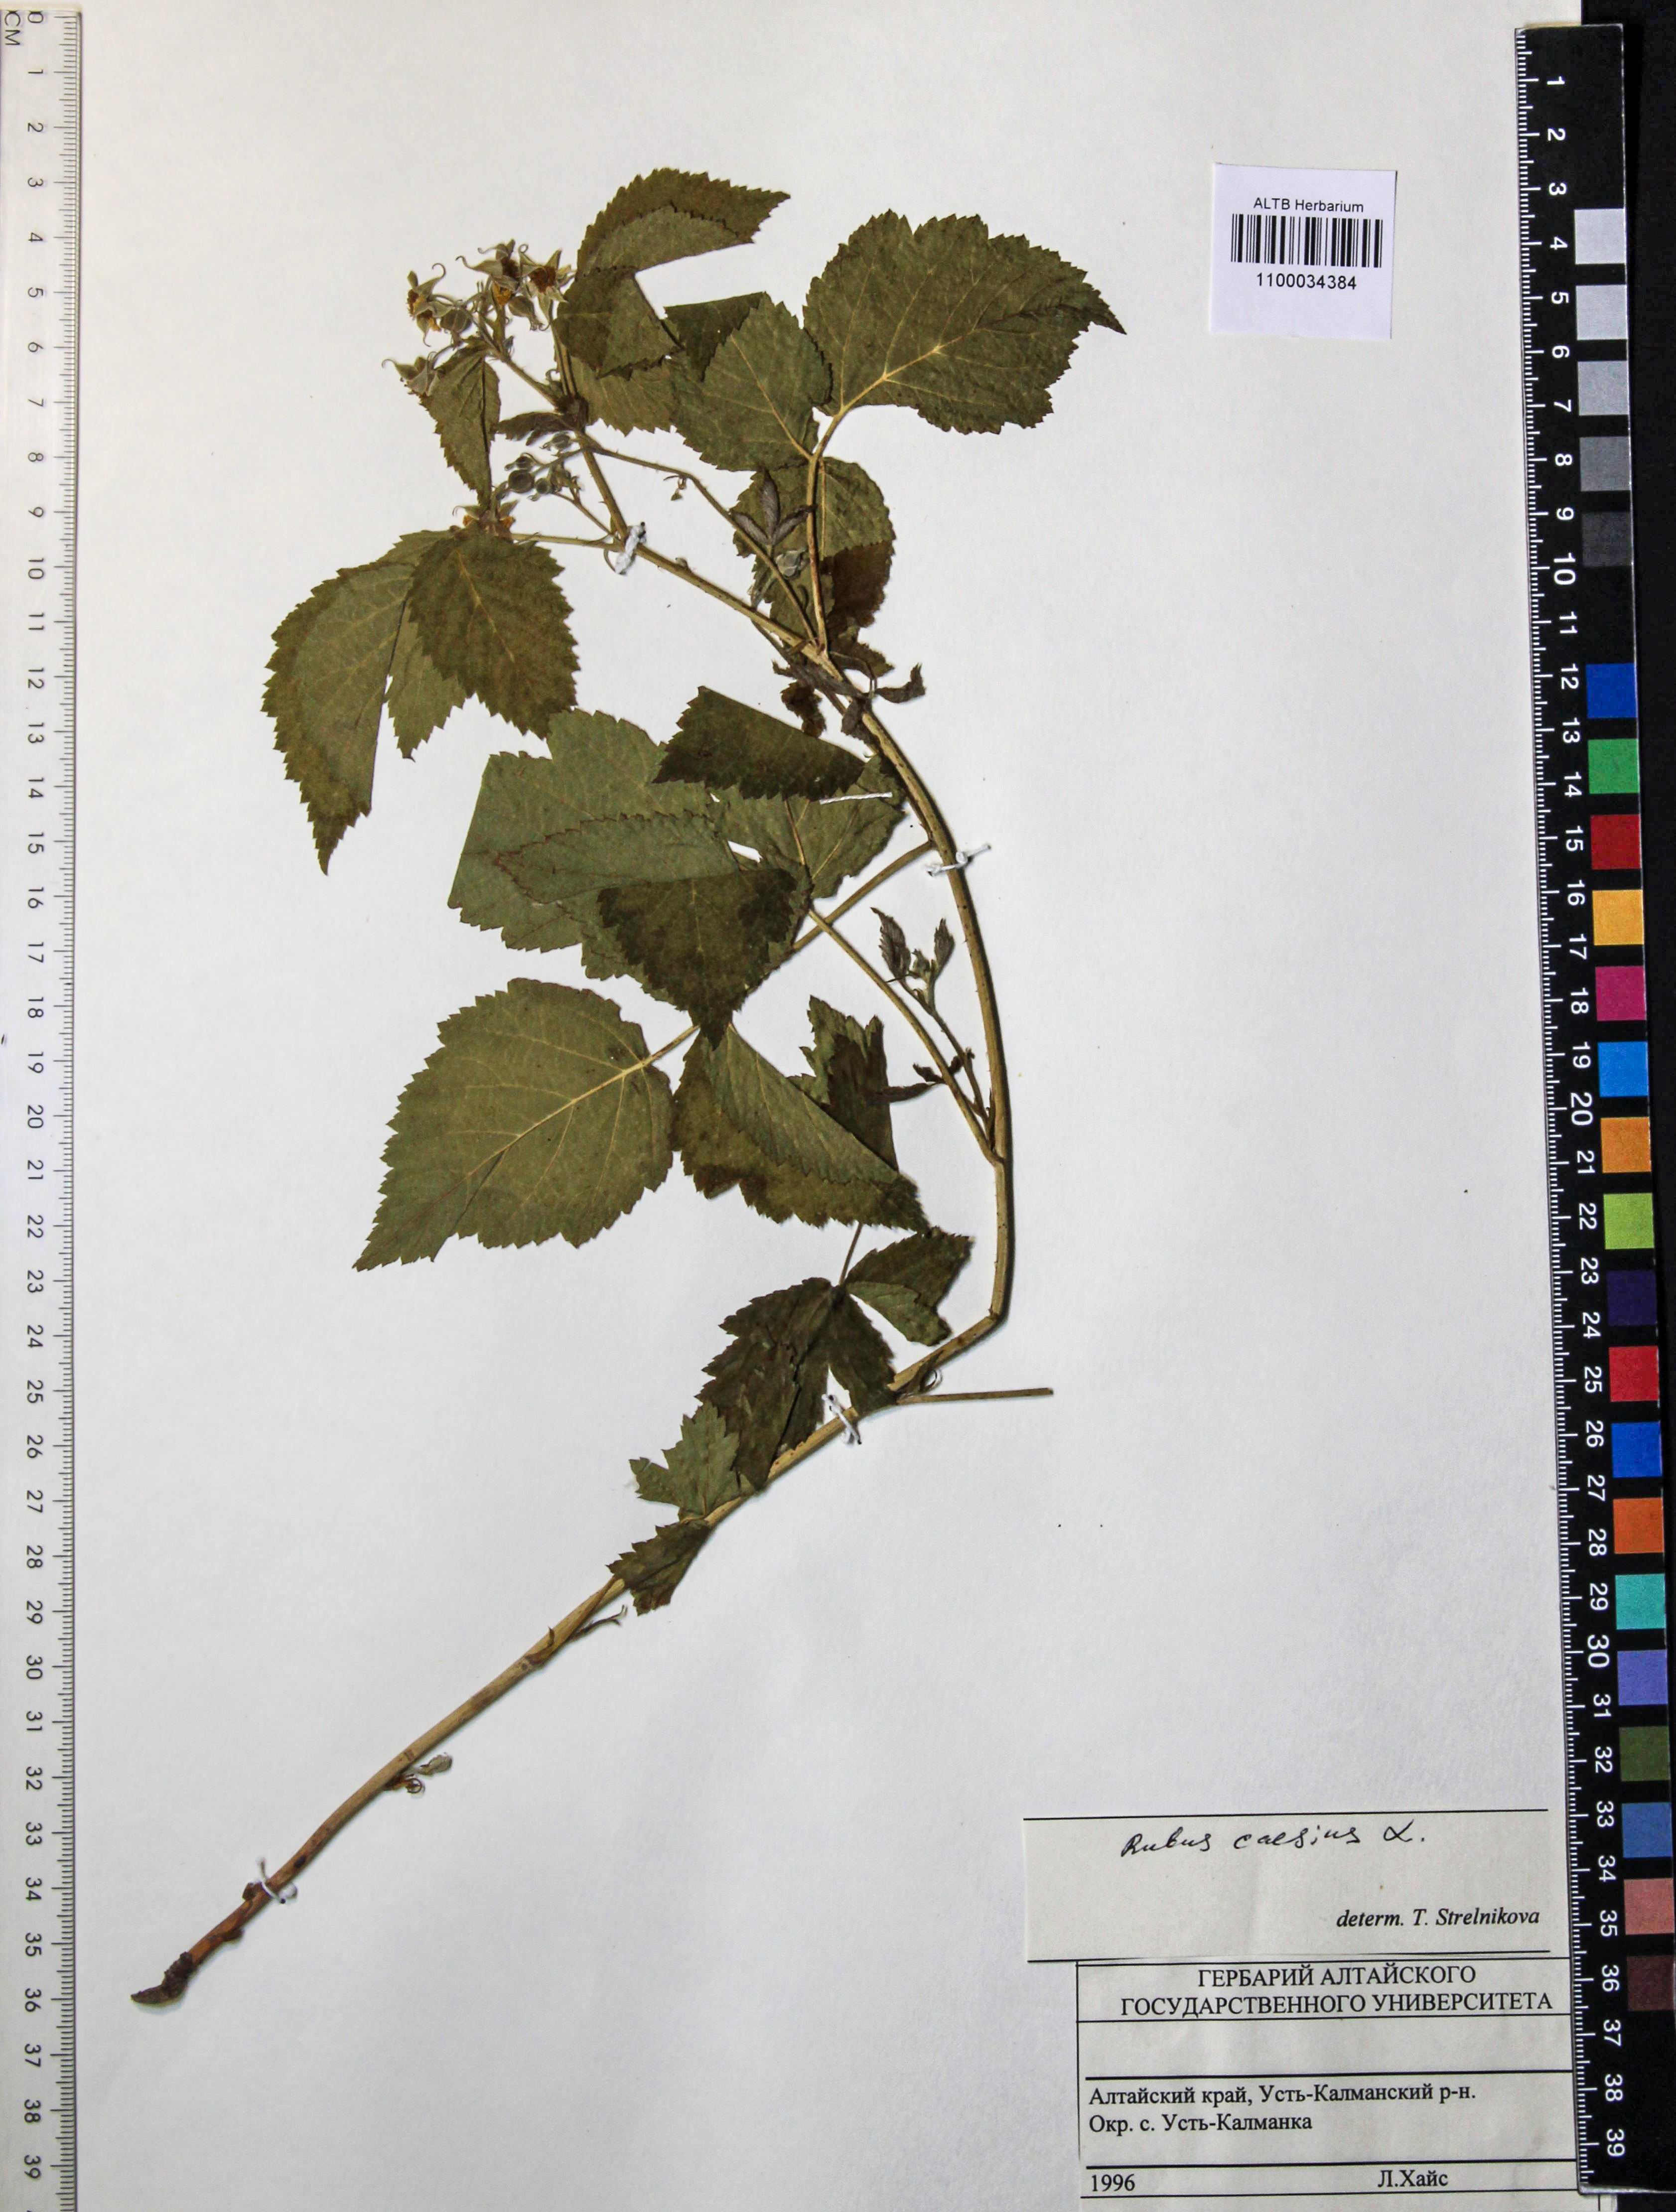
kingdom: Plantae
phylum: Tracheophyta
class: Magnoliopsida
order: Rosales
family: Rosaceae
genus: Rubus
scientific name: Rubus caesius
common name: Dewberry
